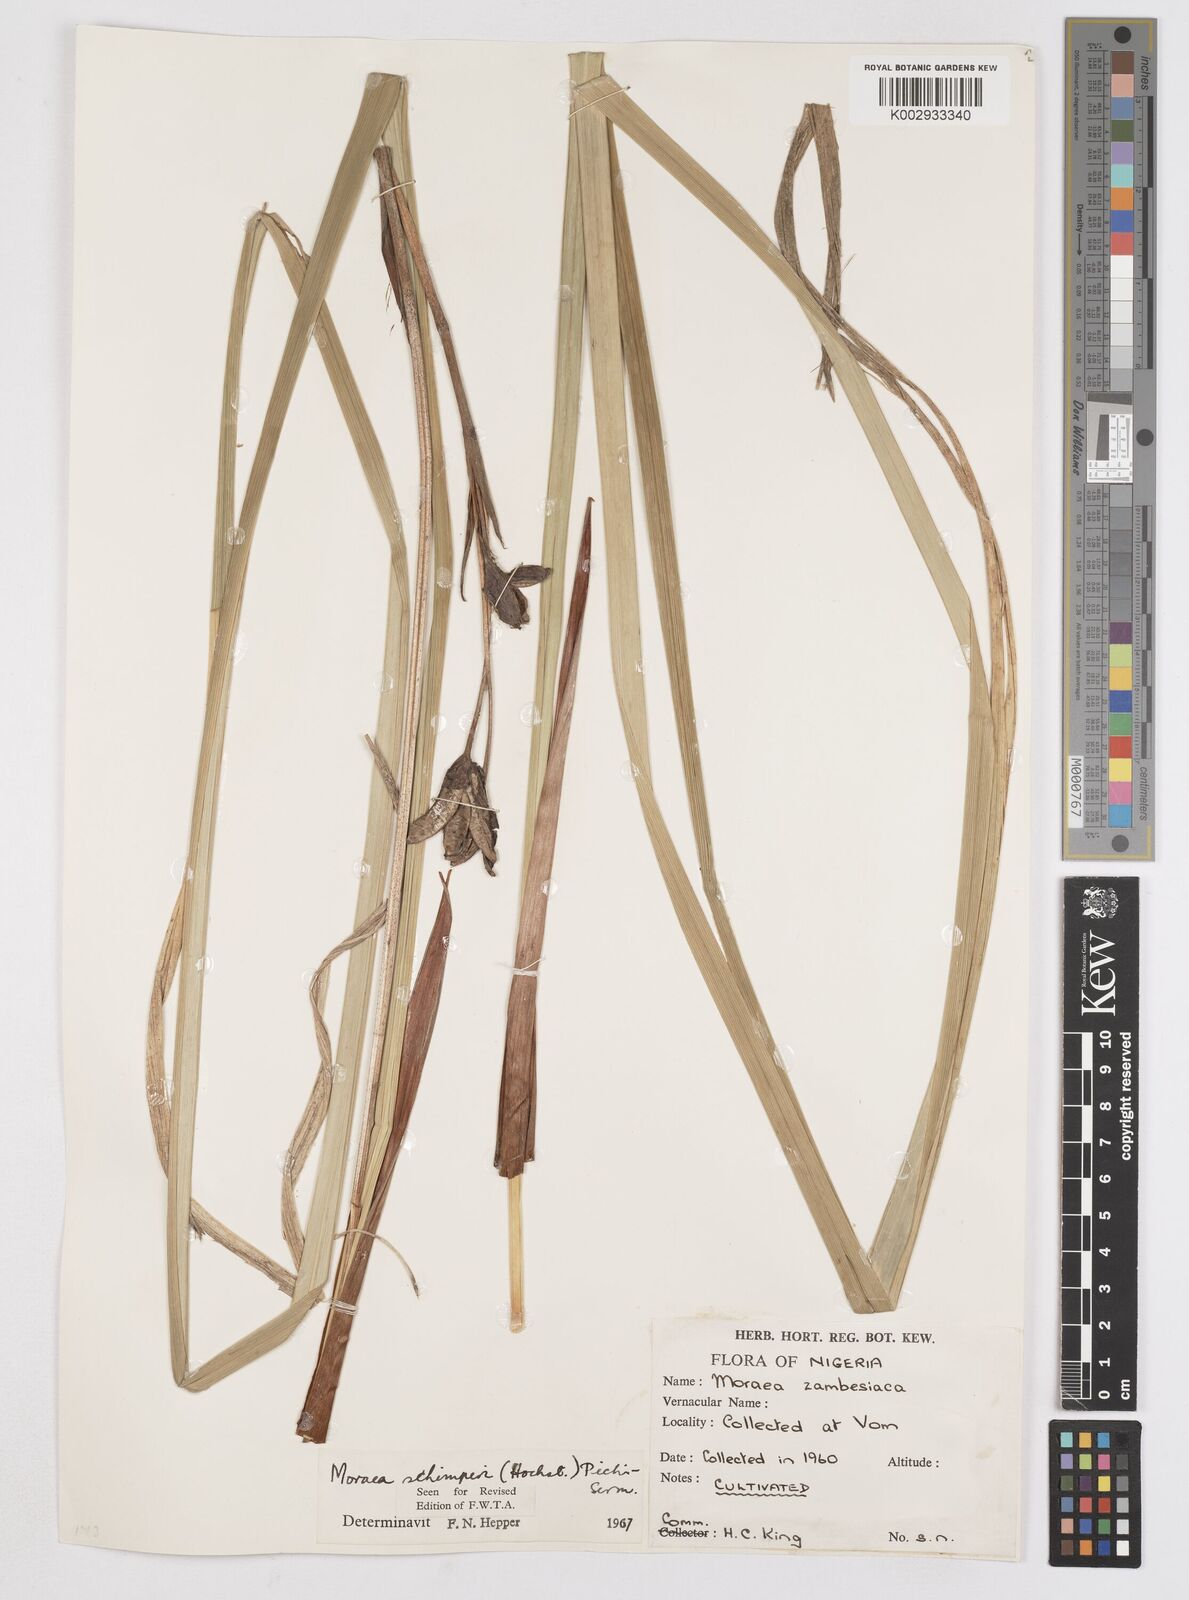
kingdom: Plantae
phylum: Tracheophyta
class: Liliopsida
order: Asparagales
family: Iridaceae
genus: Moraea
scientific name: Moraea schimperi
